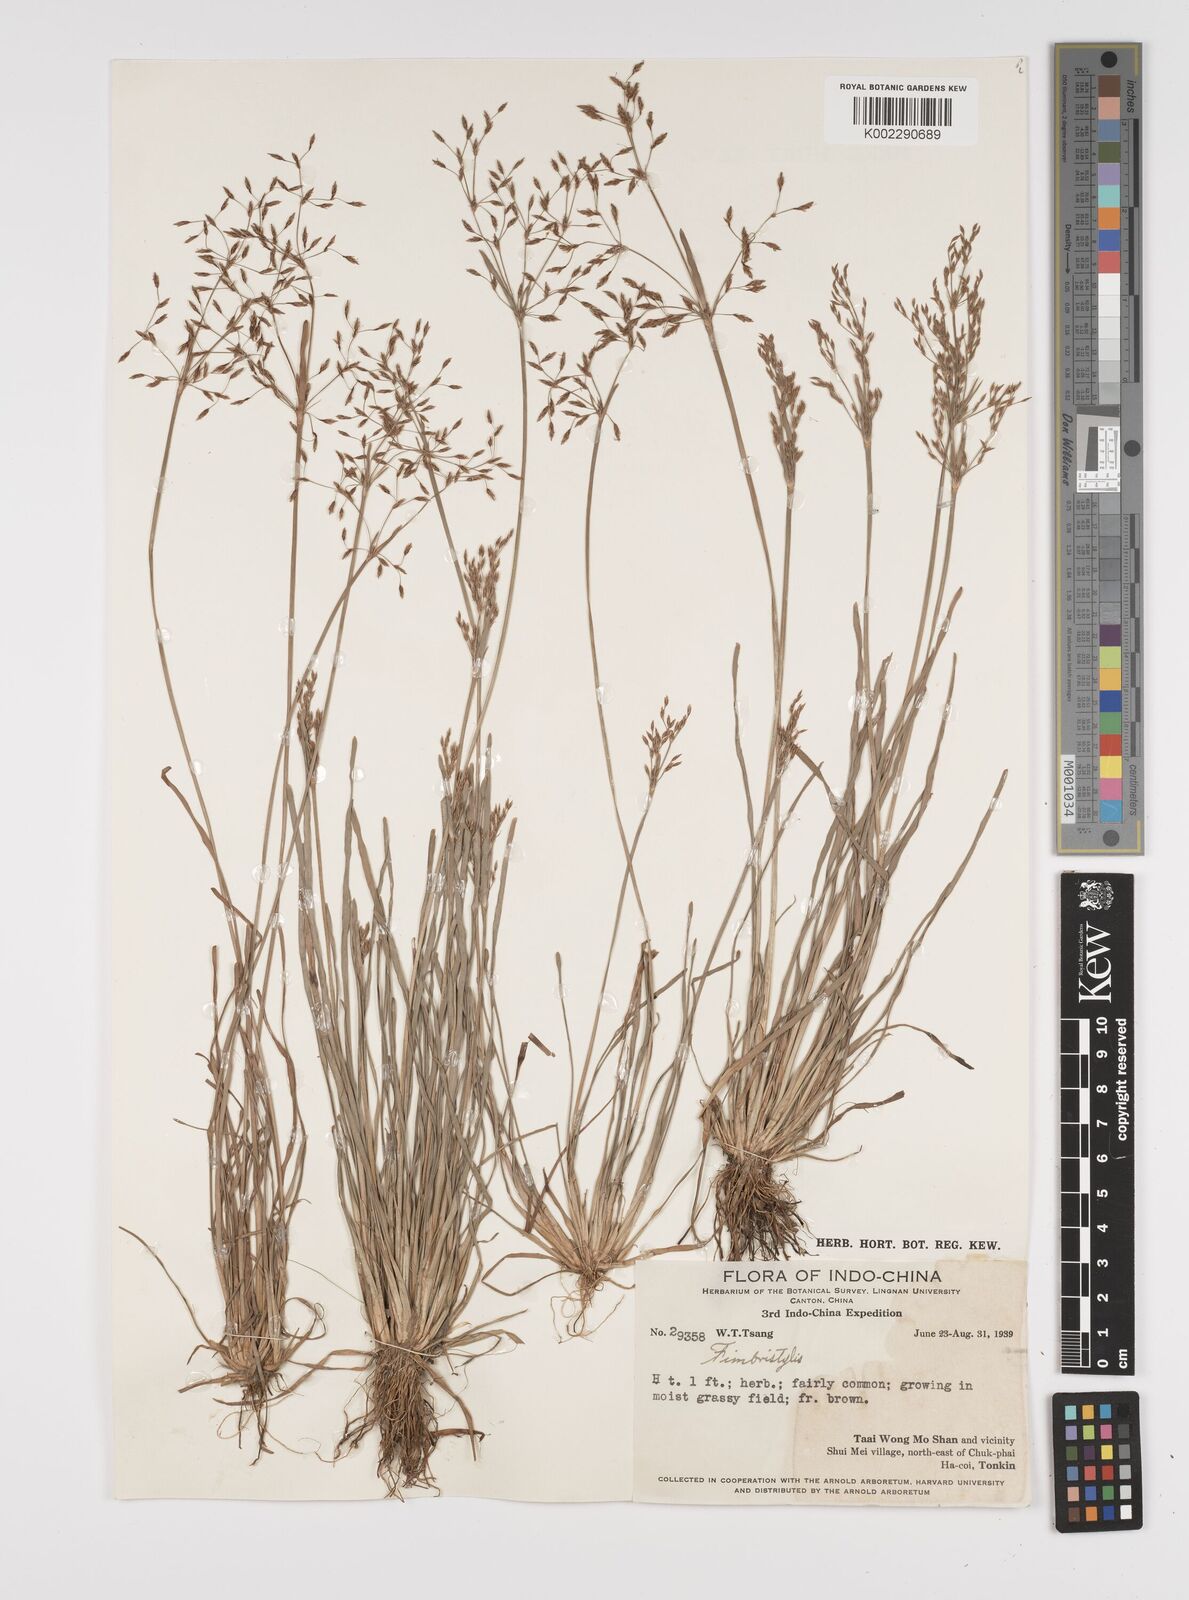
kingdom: Plantae
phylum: Tracheophyta
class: Liliopsida
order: Poales
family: Cyperaceae
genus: Fimbristylis
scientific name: Fimbristylis
